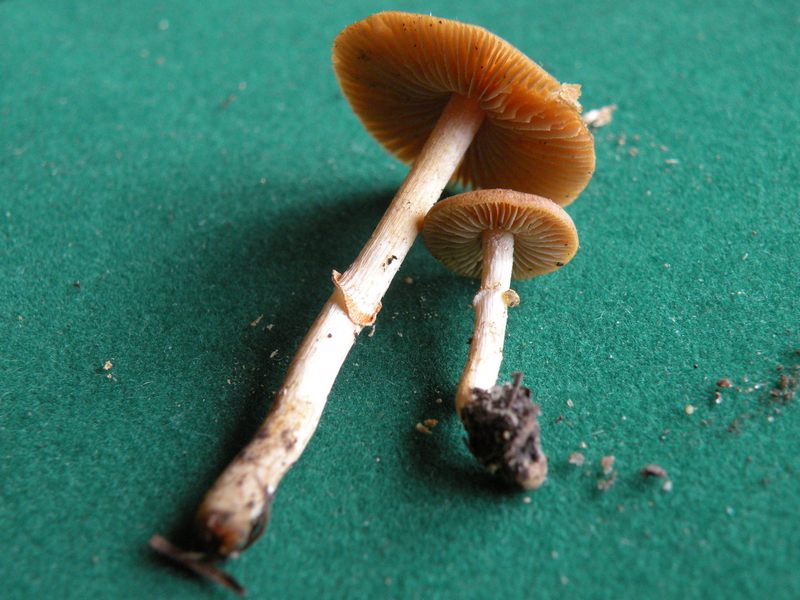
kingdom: Fungi
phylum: Basidiomycota
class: Agaricomycetes
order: Agaricales
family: Bolbitiaceae
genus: Conocybe
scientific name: Conocybe aporos
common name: tidlig dansehat
